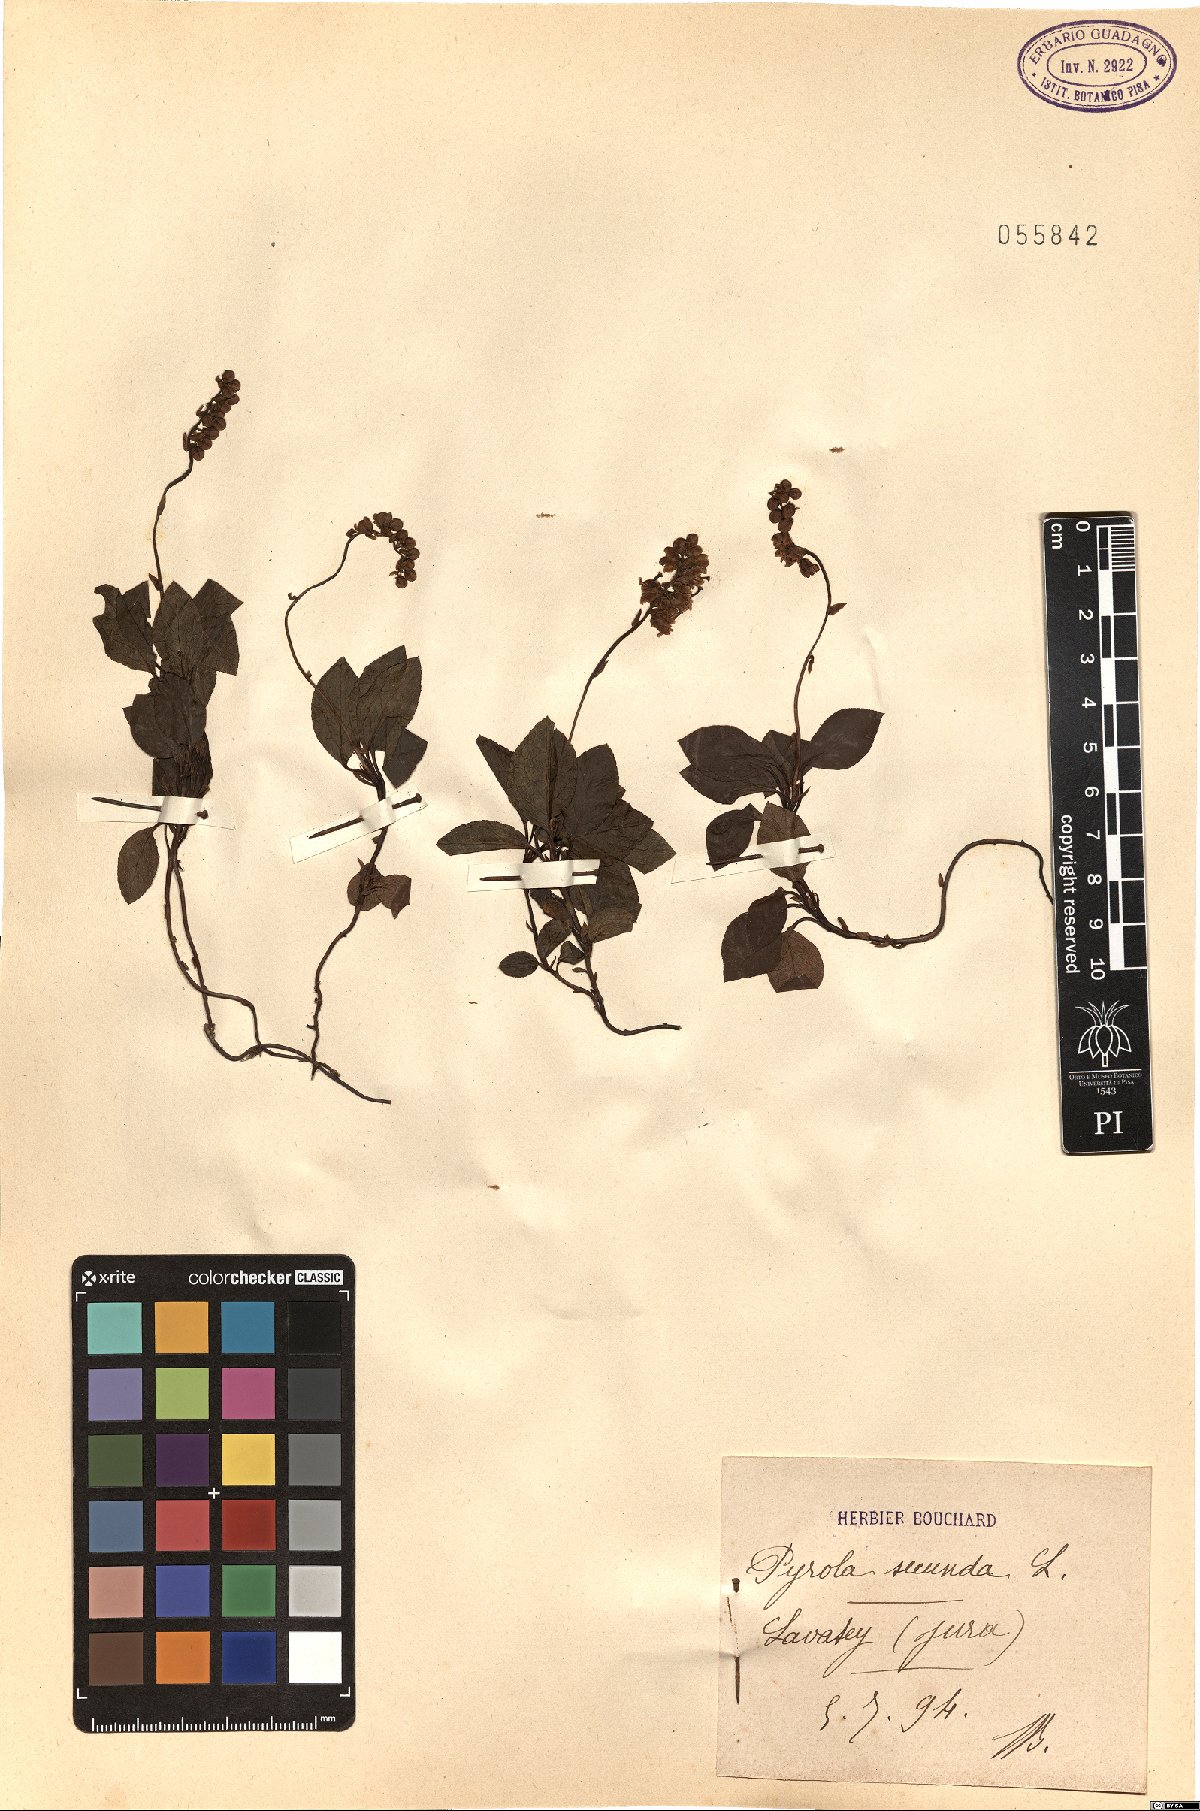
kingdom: Plantae
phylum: Tracheophyta
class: Magnoliopsida
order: Ericales
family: Ericaceae
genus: Orthilia
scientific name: Orthilia secunda
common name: One-sided orthilia
